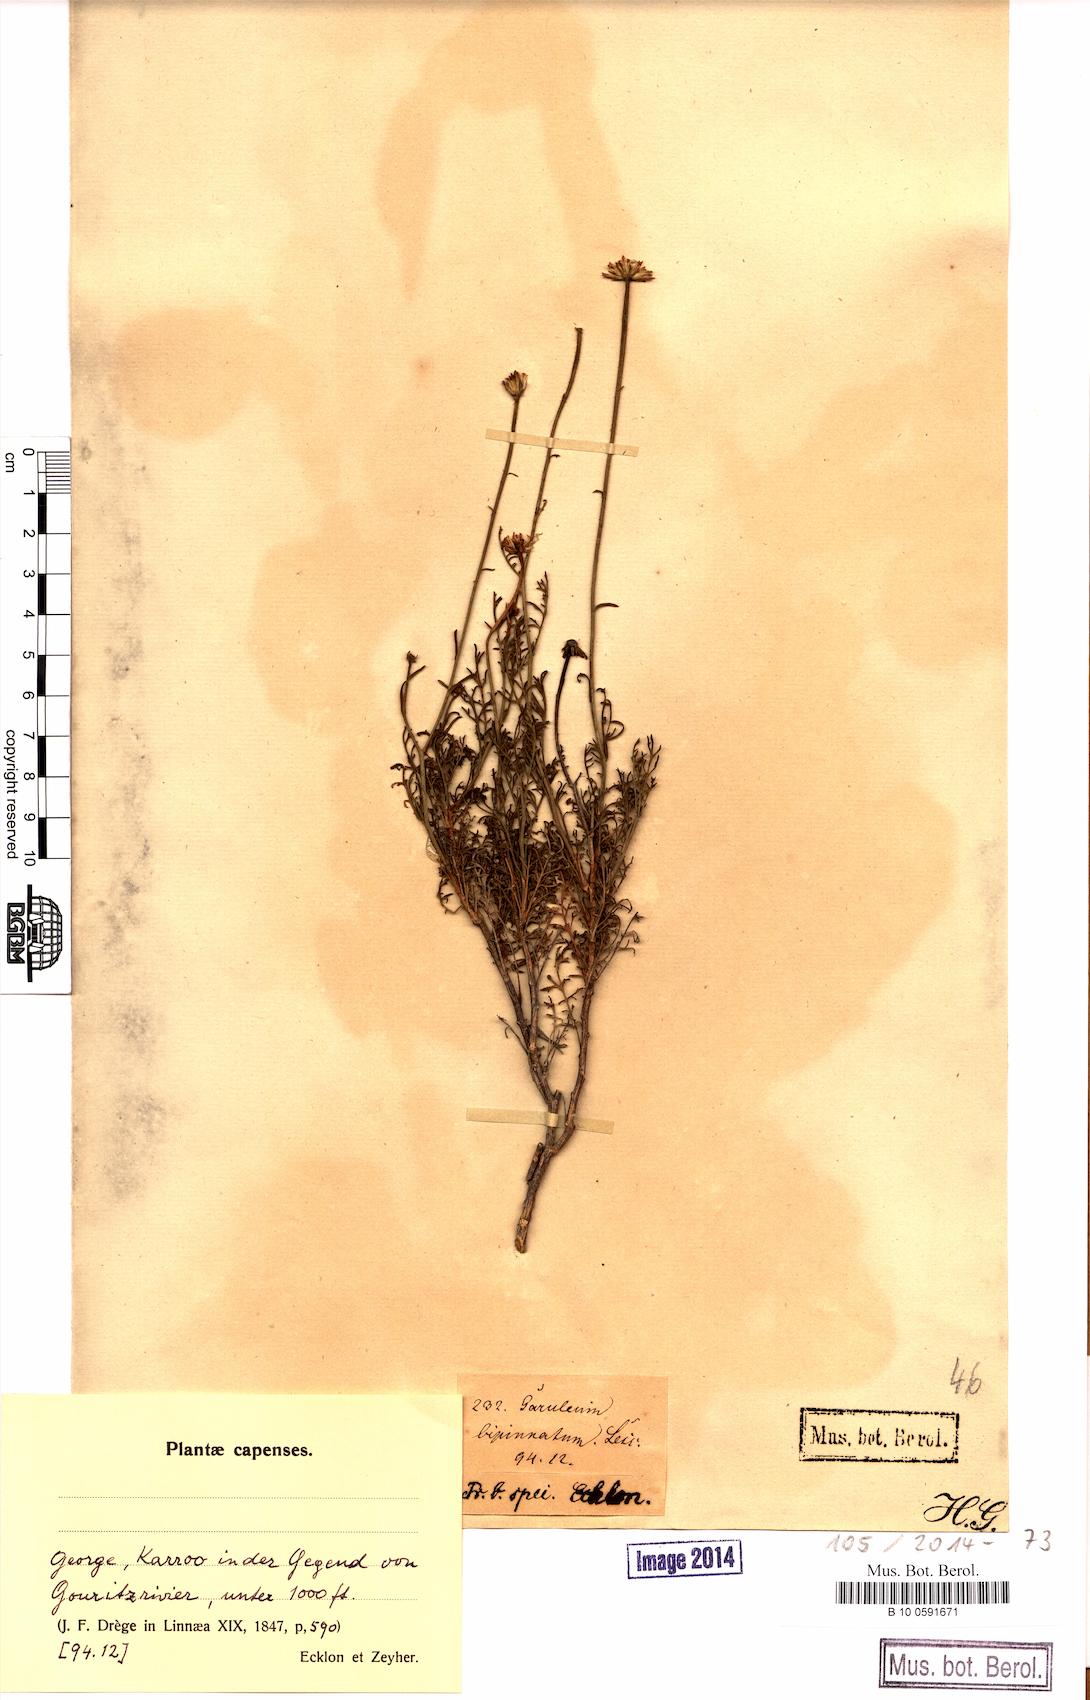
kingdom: Plantae
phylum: Tracheophyta
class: Magnoliopsida
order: Asterales
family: Asteraceae
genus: Garuleum
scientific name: Garuleum bipinnatum
